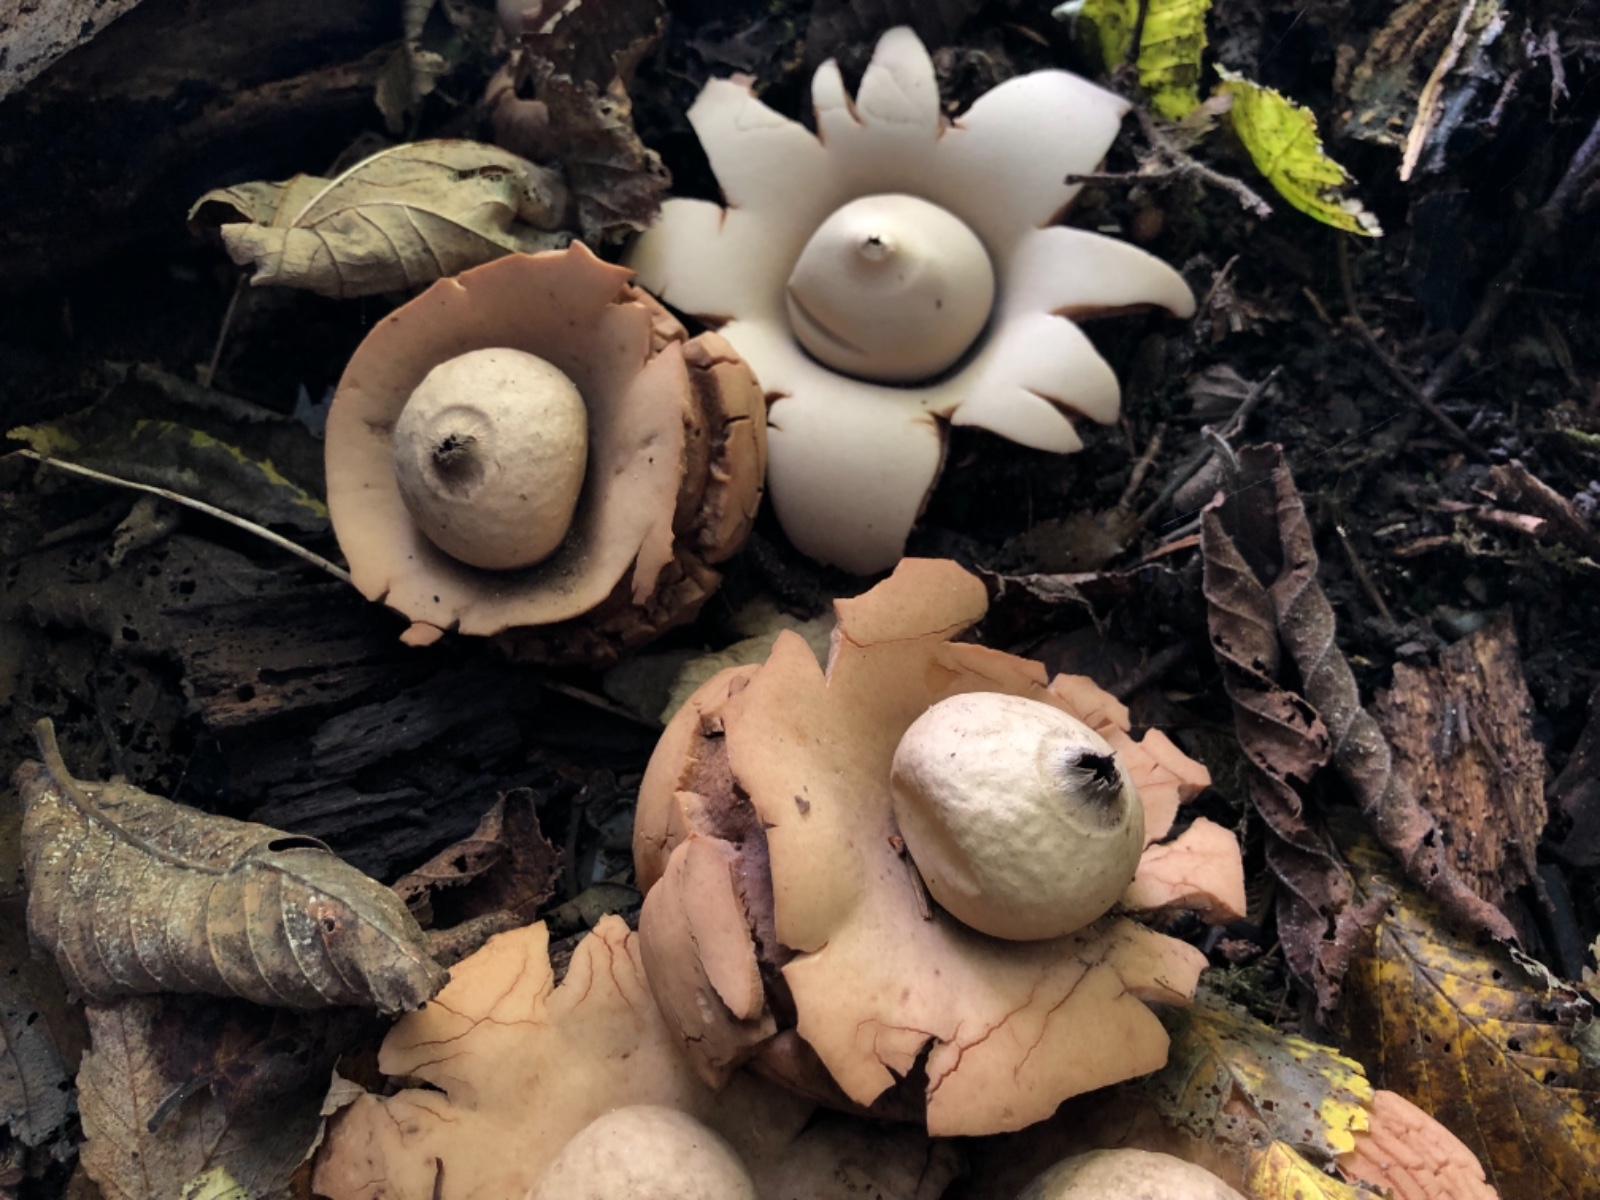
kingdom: Fungi
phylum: Basidiomycota
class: Agaricomycetes
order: Geastrales
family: Geastraceae
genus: Geastrum
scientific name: Geastrum michelianum
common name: kødet stjernebold
